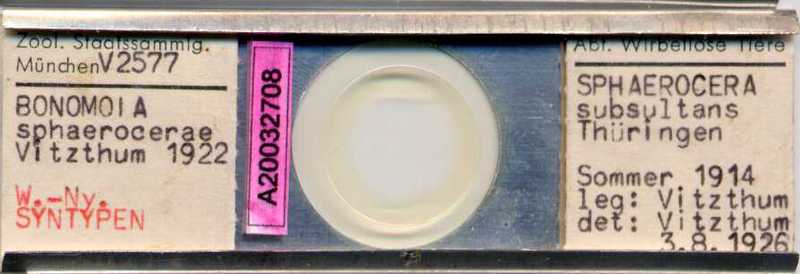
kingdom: Animalia
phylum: Arthropoda
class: Arachnida
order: Sarcoptiformes
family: Histiostomatidae
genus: Capronomoia
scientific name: Capronomoia sphaerocerae
